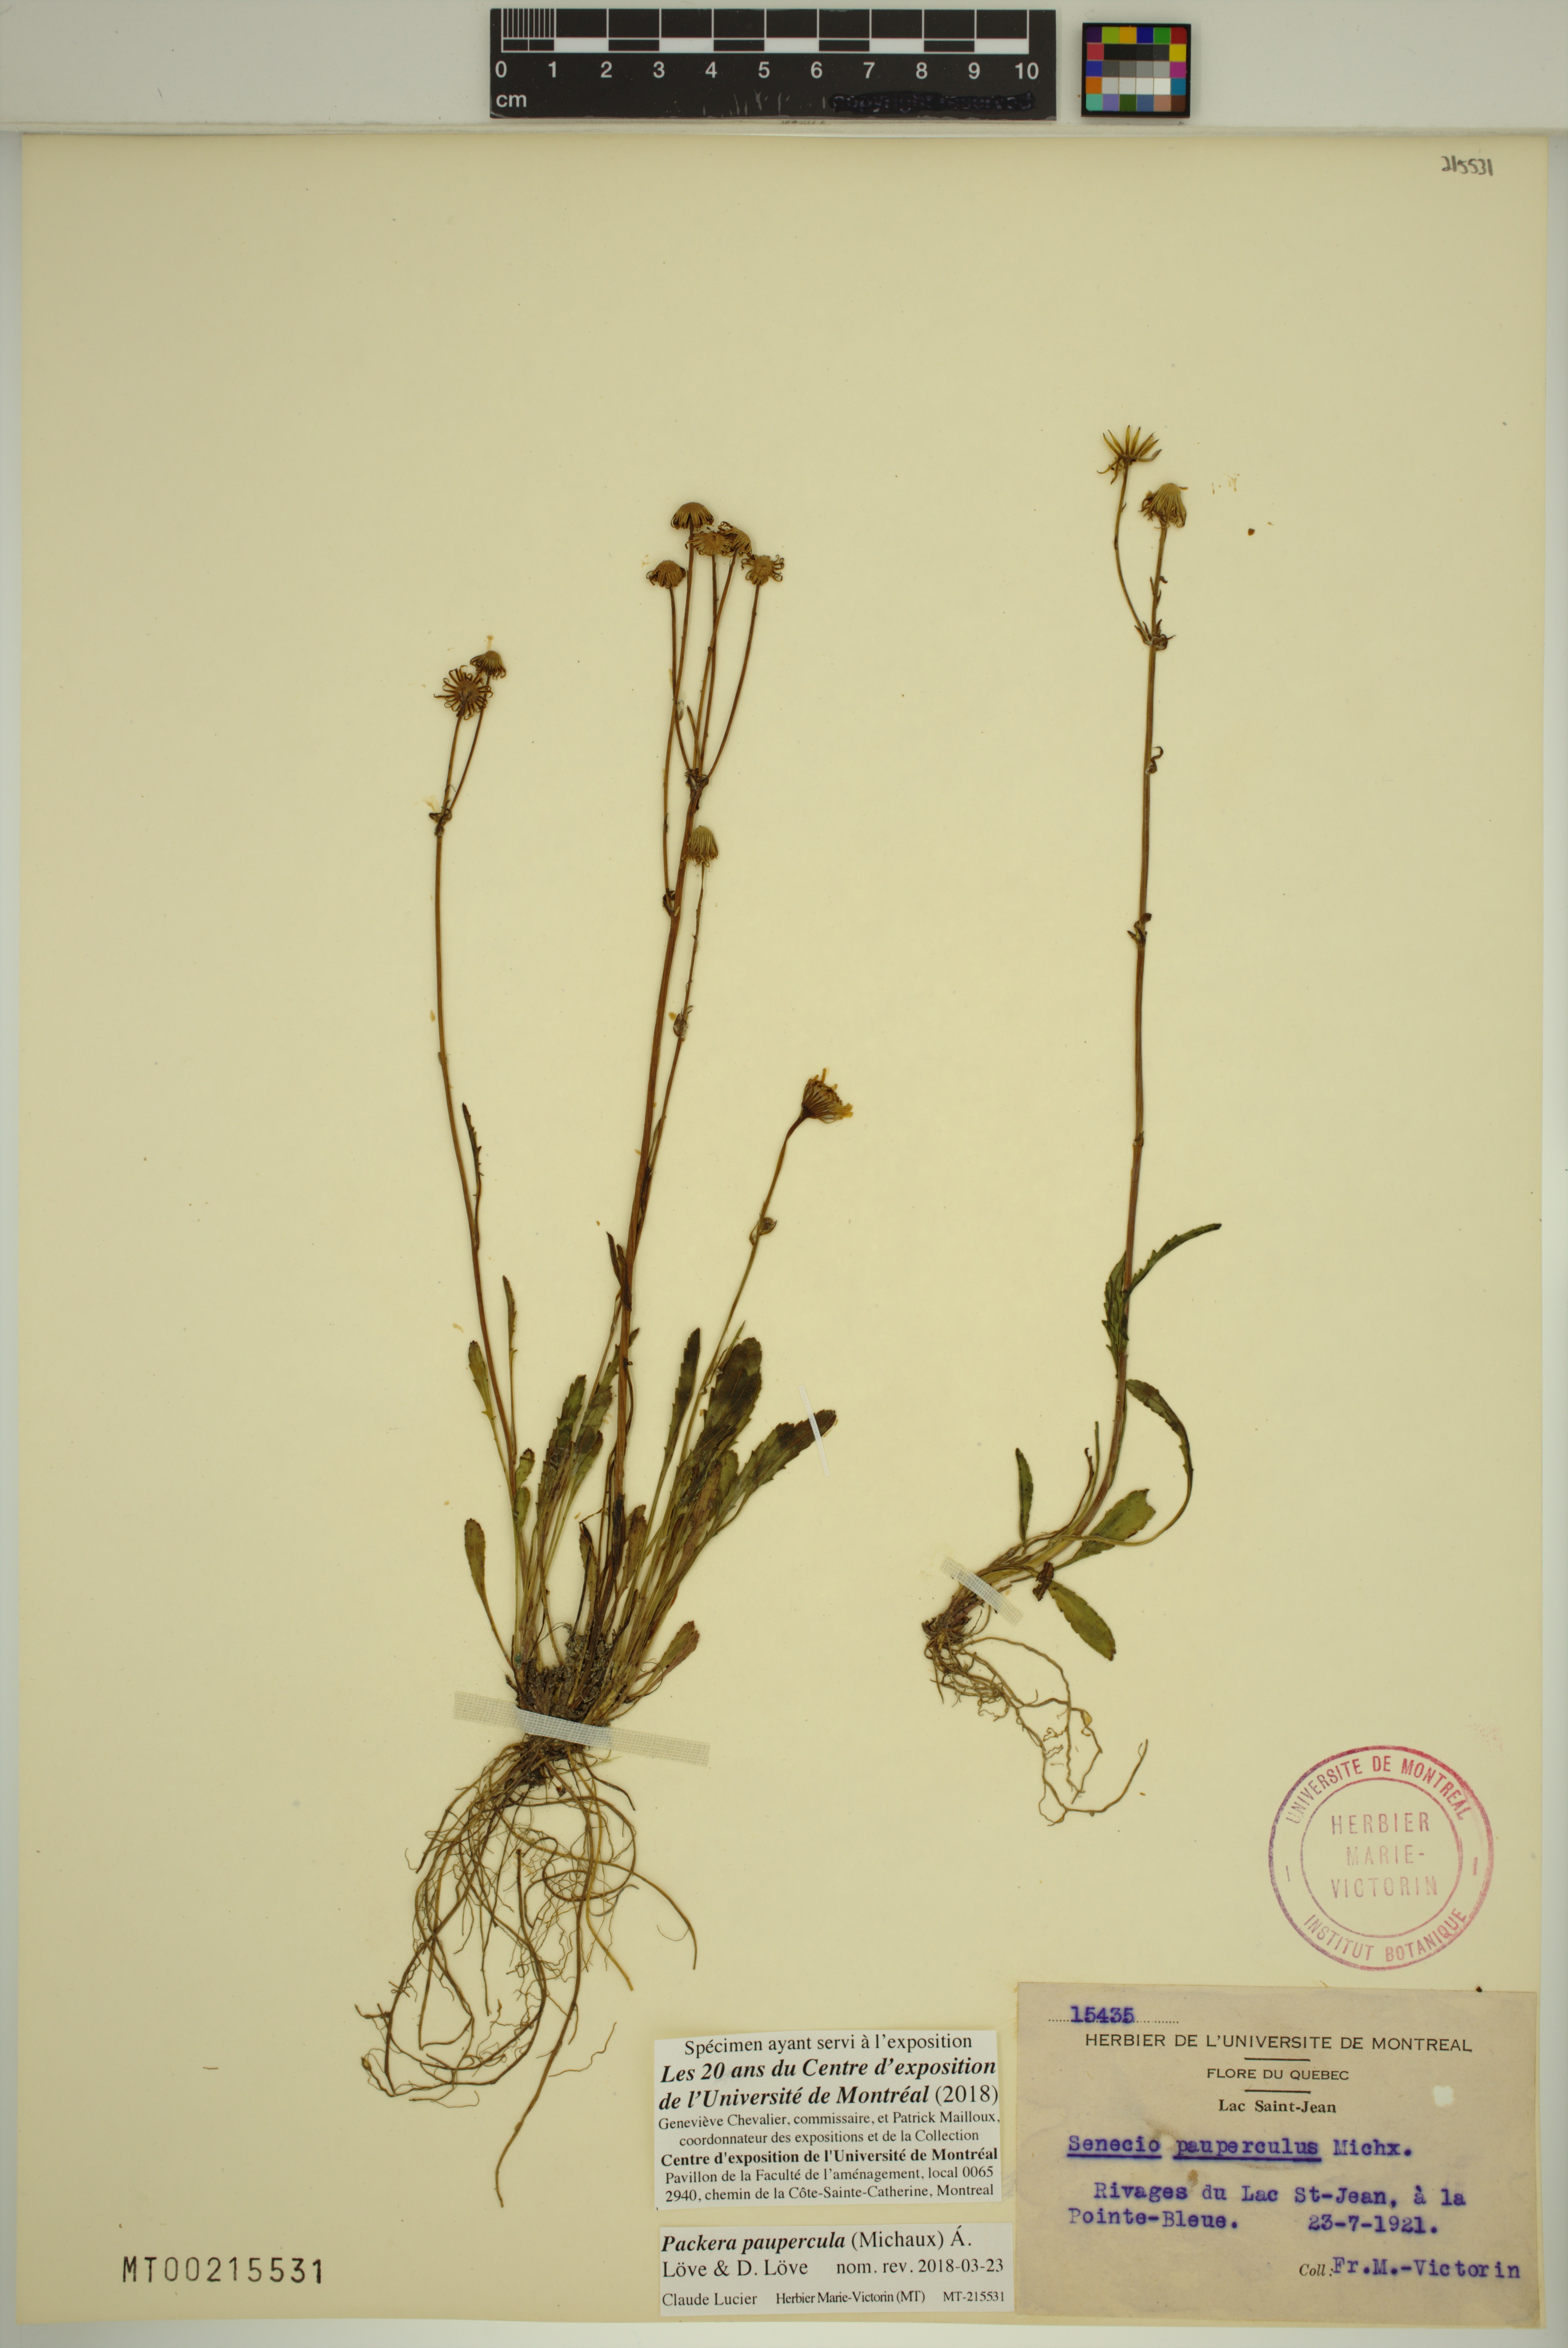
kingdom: Plantae
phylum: Tracheophyta
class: Magnoliopsida
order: Asterales
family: Asteraceae
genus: Packera
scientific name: Packera paupercula
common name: Balsam groundsel
